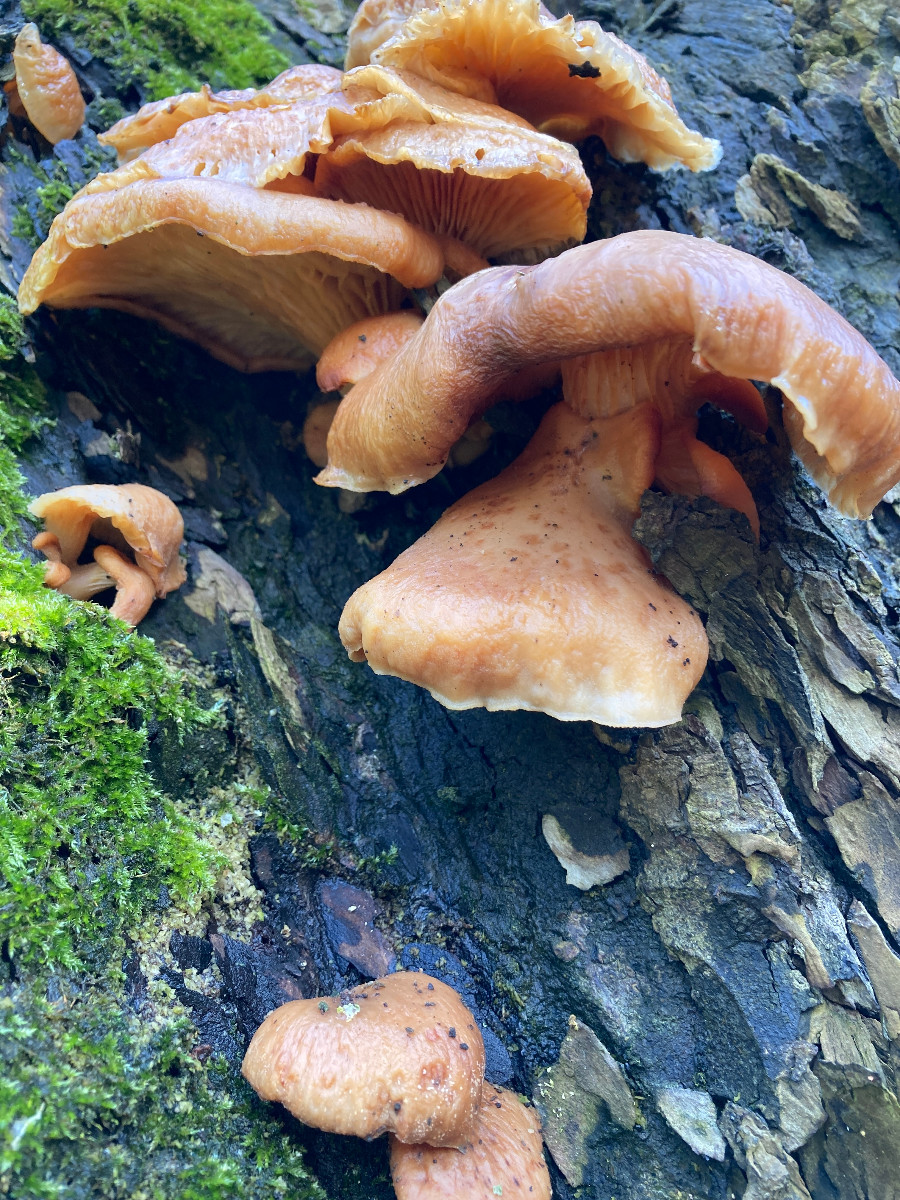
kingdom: Fungi
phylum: Basidiomycota
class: Agaricomycetes
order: Agaricales
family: Sarcomyxaceae
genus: Sarcomyxa
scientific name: Sarcomyxa serotina
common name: gummihat
